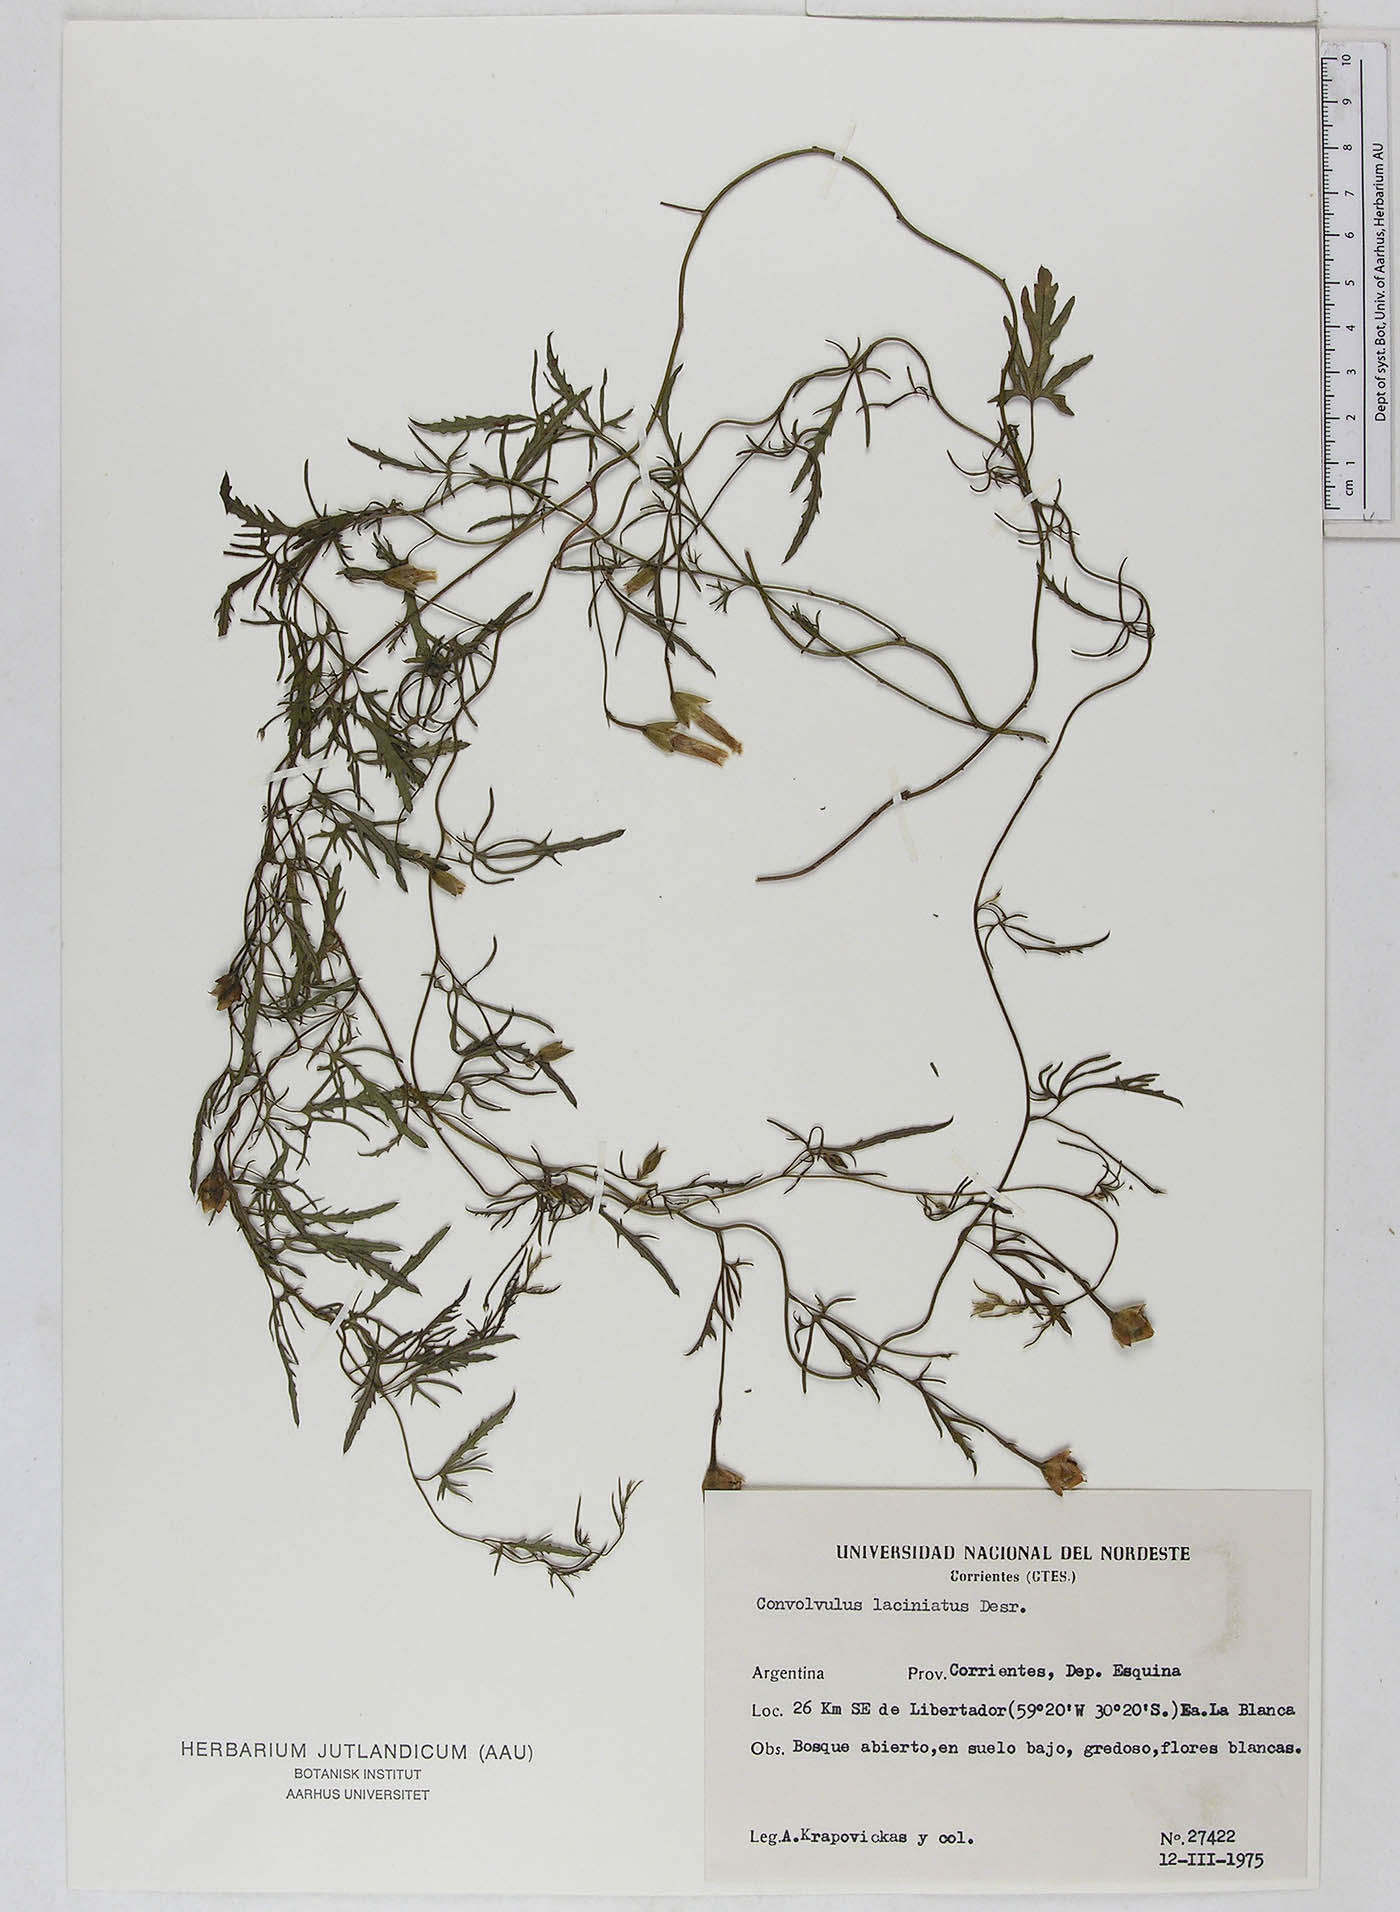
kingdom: Plantae
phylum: Tracheophyta
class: Magnoliopsida
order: Solanales
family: Convolvulaceae
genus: Convolvulus
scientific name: Convolvulus laciniatus
